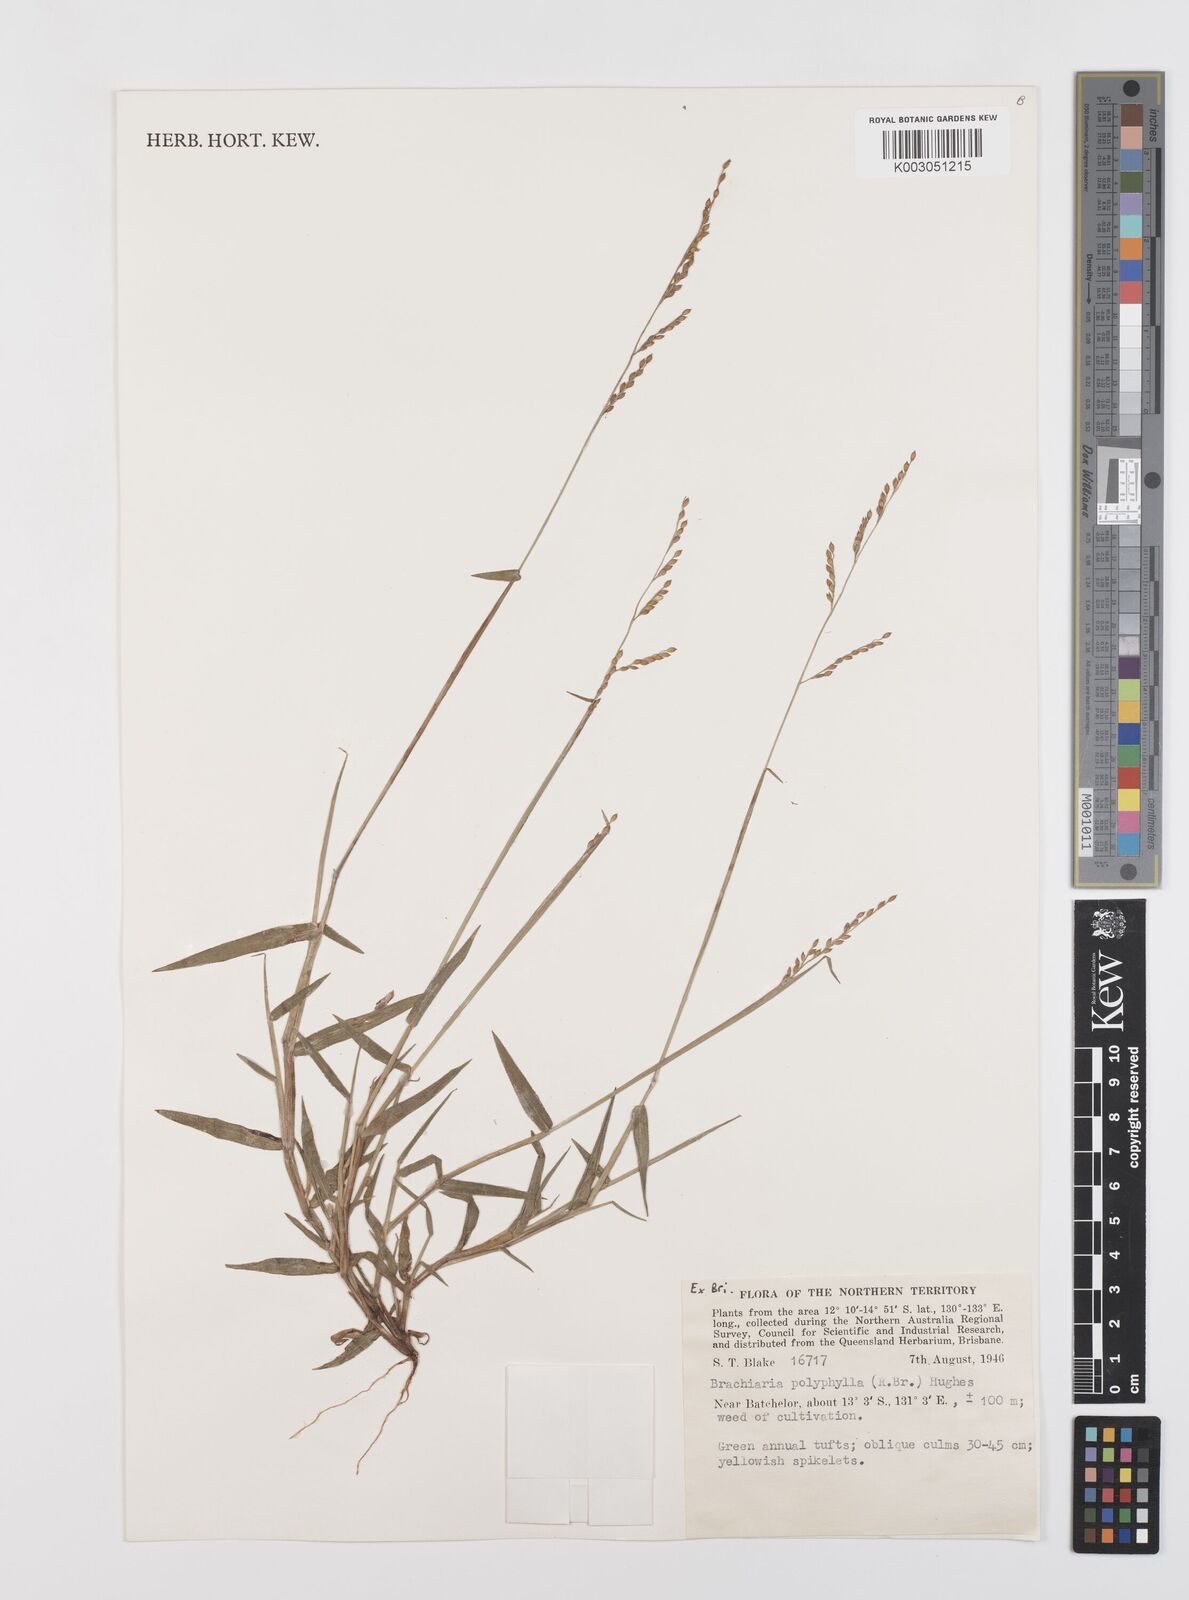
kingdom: Plantae
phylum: Tracheophyta
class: Liliopsida
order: Poales
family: Poaceae
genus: Urochloa
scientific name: Urochloa polyphylla
